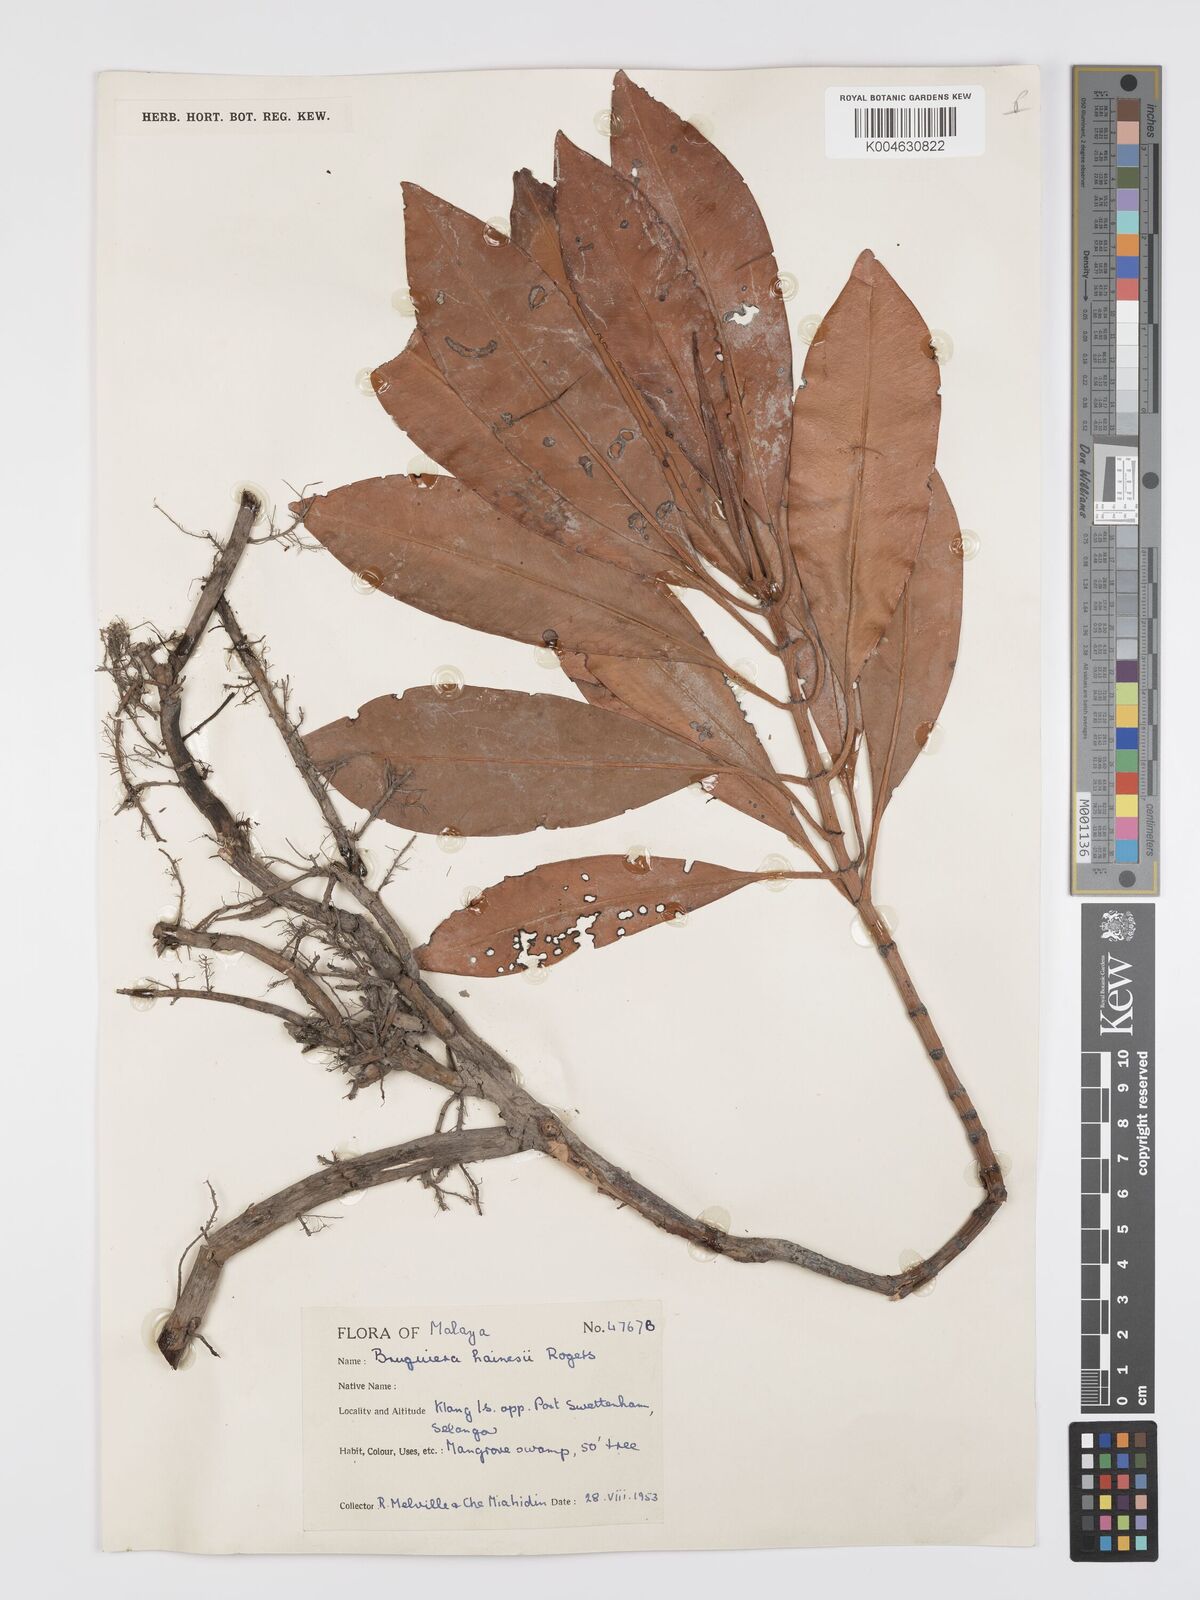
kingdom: Plantae
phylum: Tracheophyta
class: Magnoliopsida
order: Malpighiales
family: Rhizophoraceae
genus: Bruguiera
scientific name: Bruguiera hainesii
